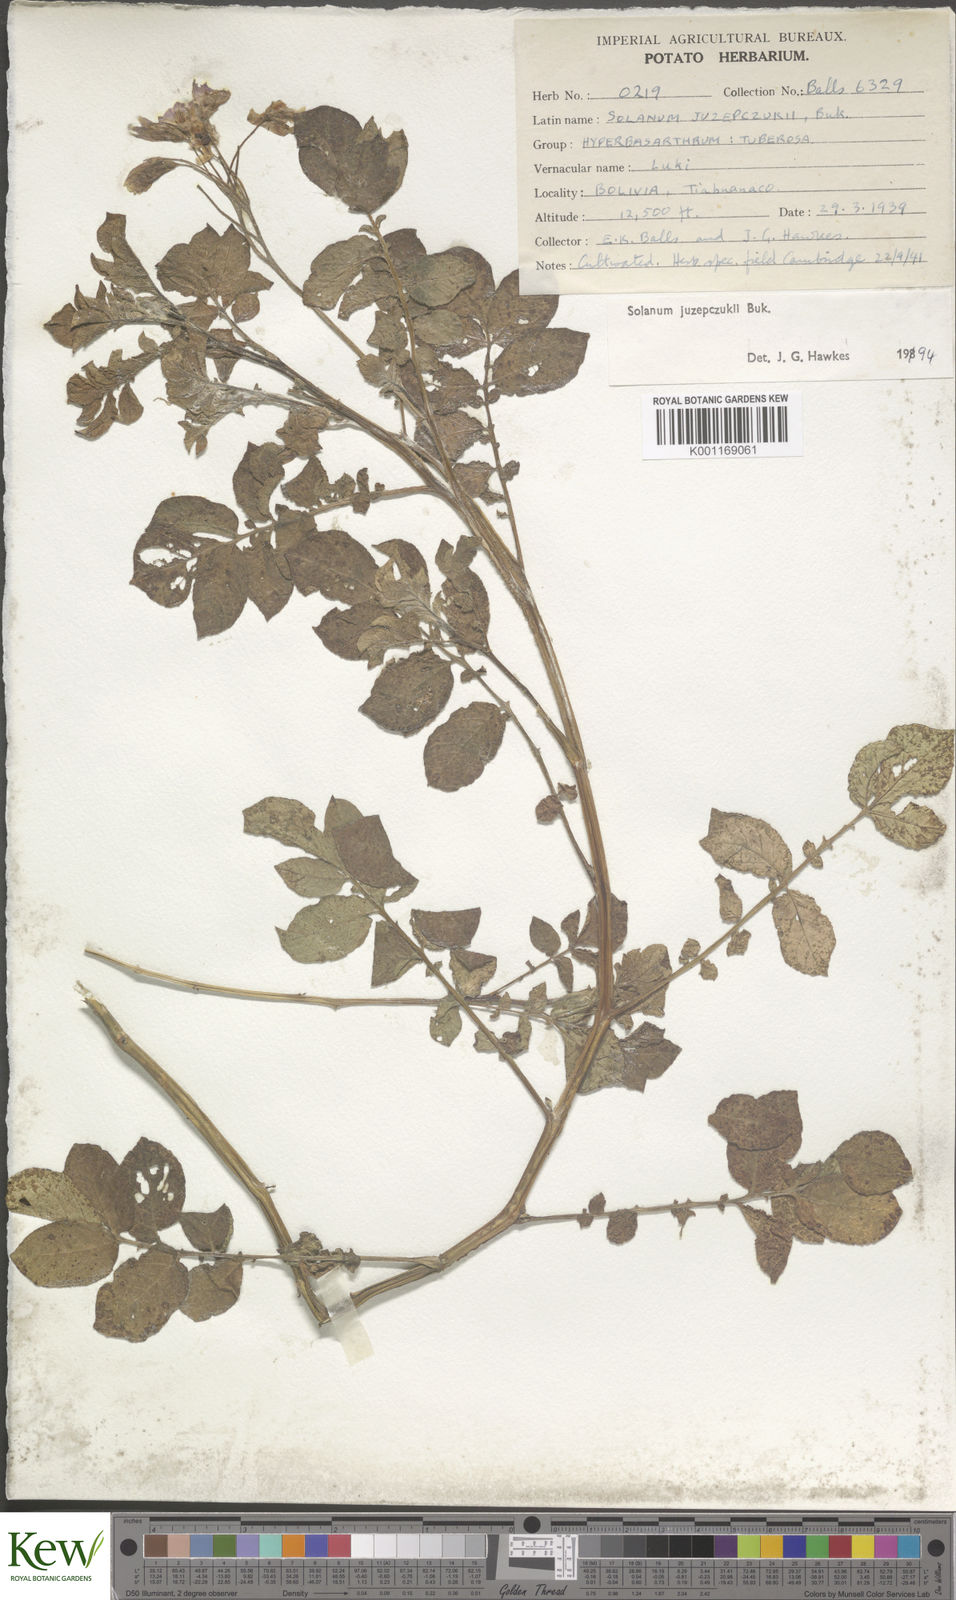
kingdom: Plantae
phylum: Tracheophyta
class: Magnoliopsida
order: Solanales
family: Solanaceae
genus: Solanum
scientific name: Solanum juzepczukii
